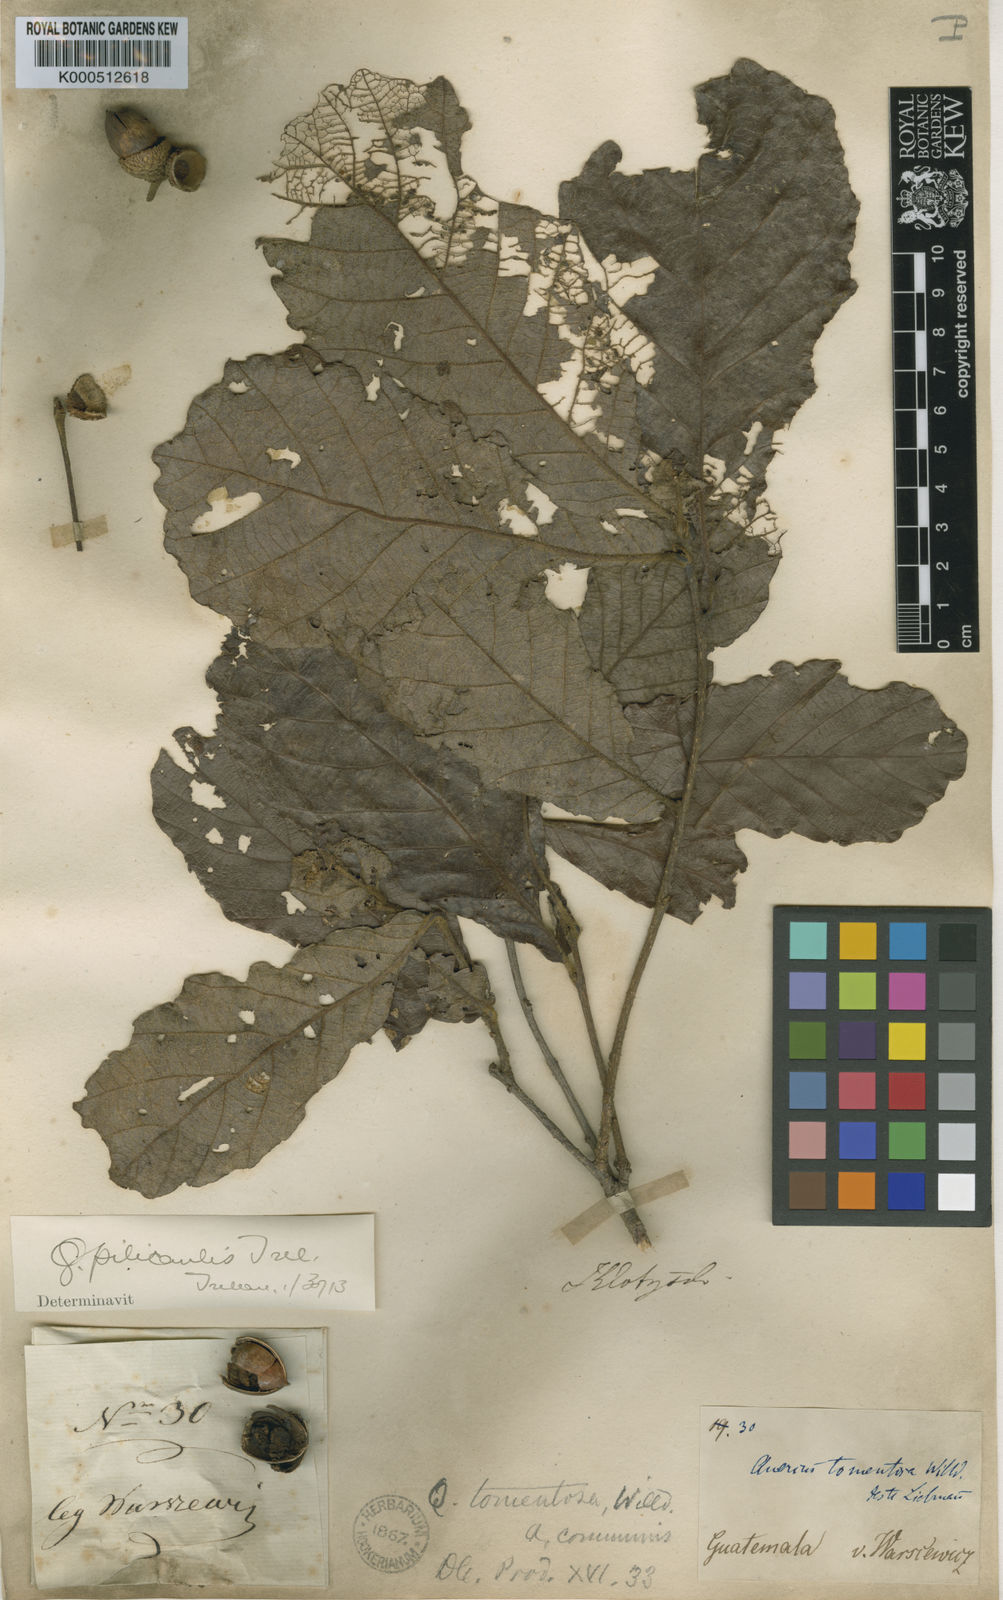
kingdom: Plantae
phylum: Tracheophyta
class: Magnoliopsida
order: Fagales
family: Fagaceae
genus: Quercus
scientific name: Quercus peduncularis
